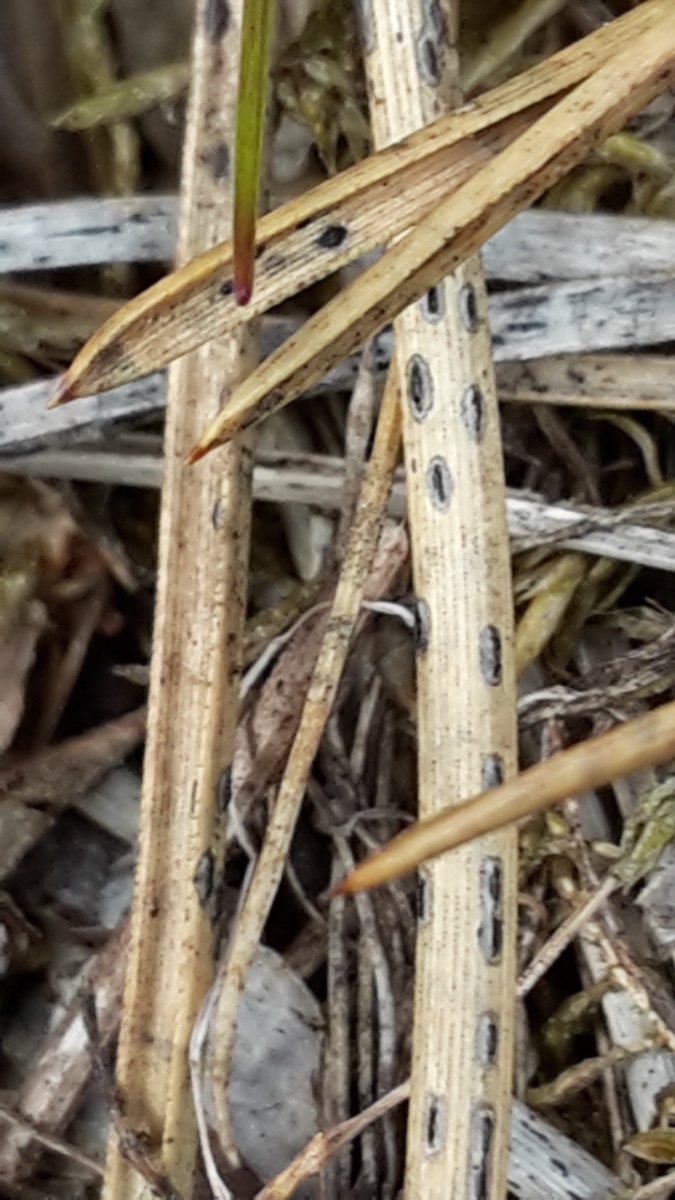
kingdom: Fungi
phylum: Ascomycota
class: Leotiomycetes
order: Rhytismatales
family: Rhytismataceae
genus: Lophodermium
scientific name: Lophodermium
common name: fureplet
